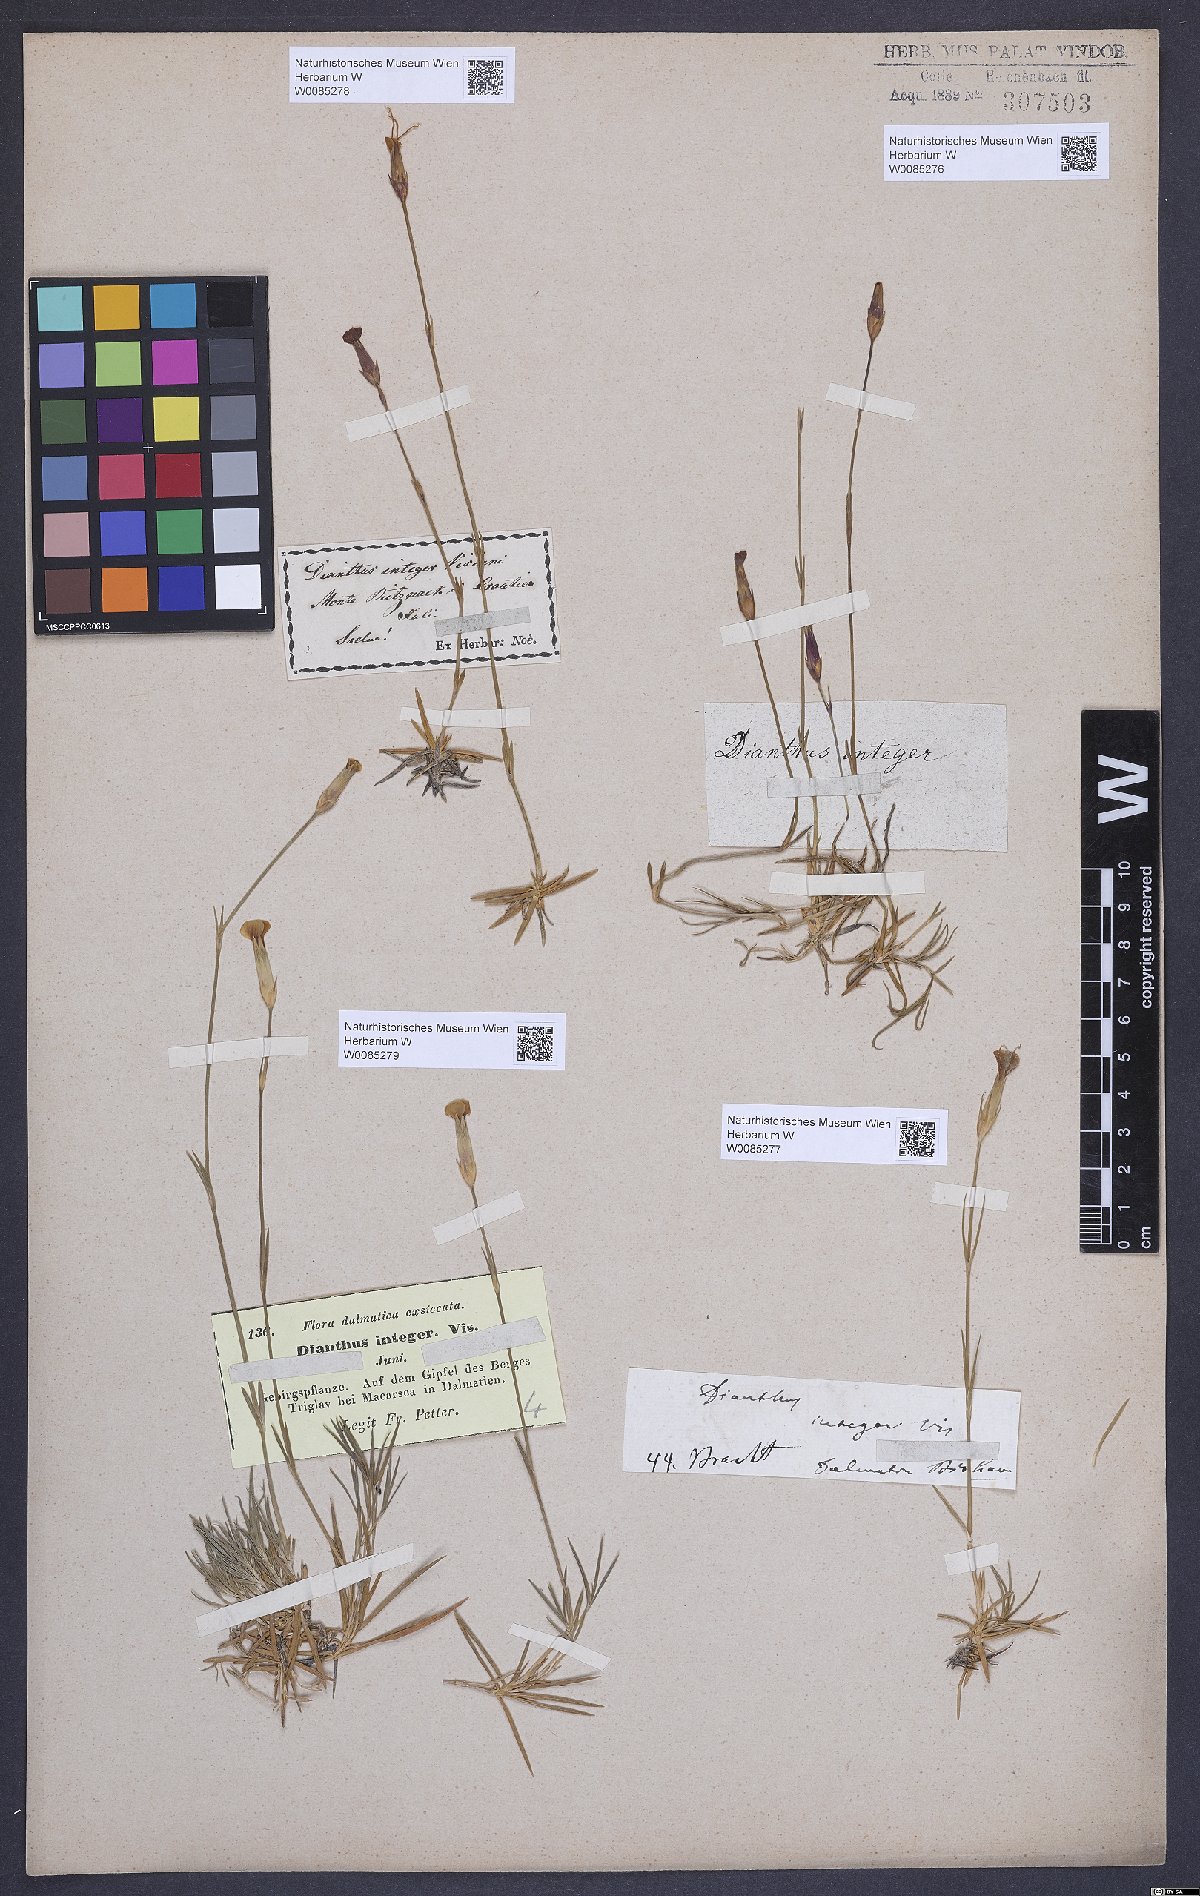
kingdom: Plantae
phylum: Tracheophyta
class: Magnoliopsida
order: Caryophyllales
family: Caryophyllaceae
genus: Dianthus
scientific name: Dianthus petraeus
